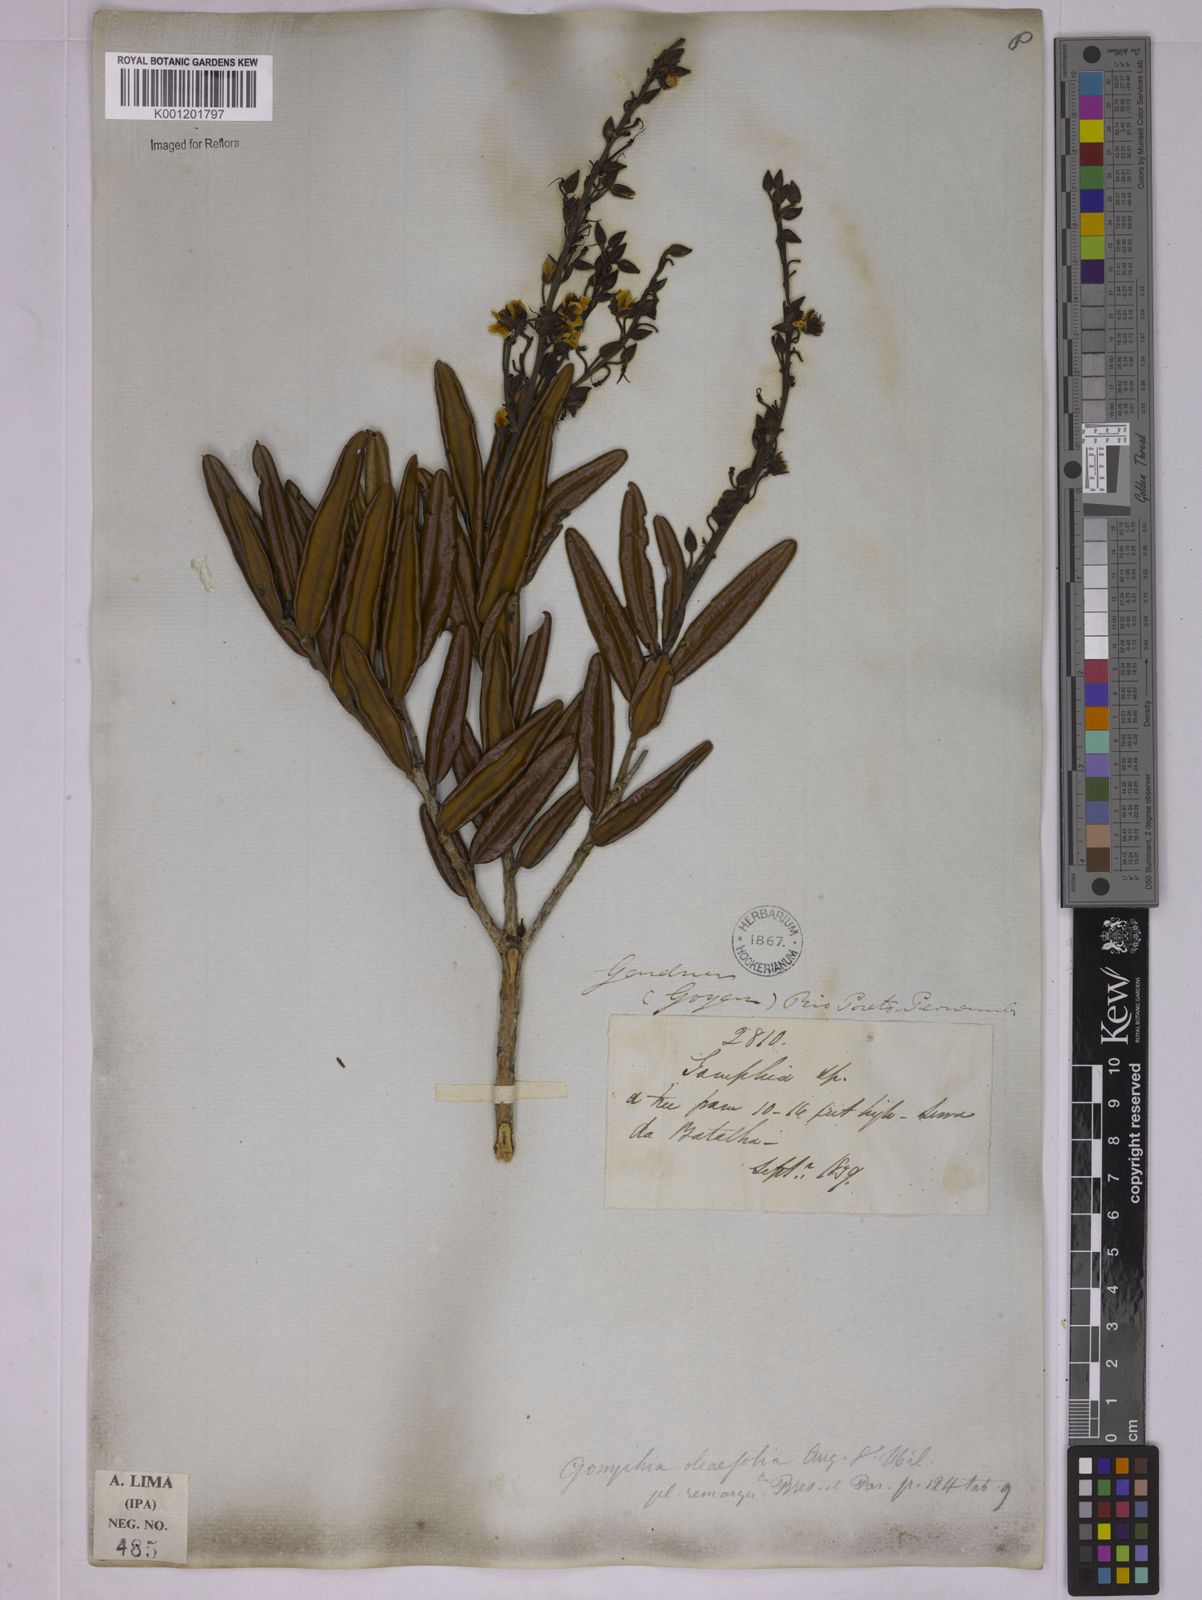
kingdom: Plantae
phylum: Tracheophyta
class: Magnoliopsida
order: Malpighiales
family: Ochnaceae
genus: Ouratea
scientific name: Ouratea oleifolia
